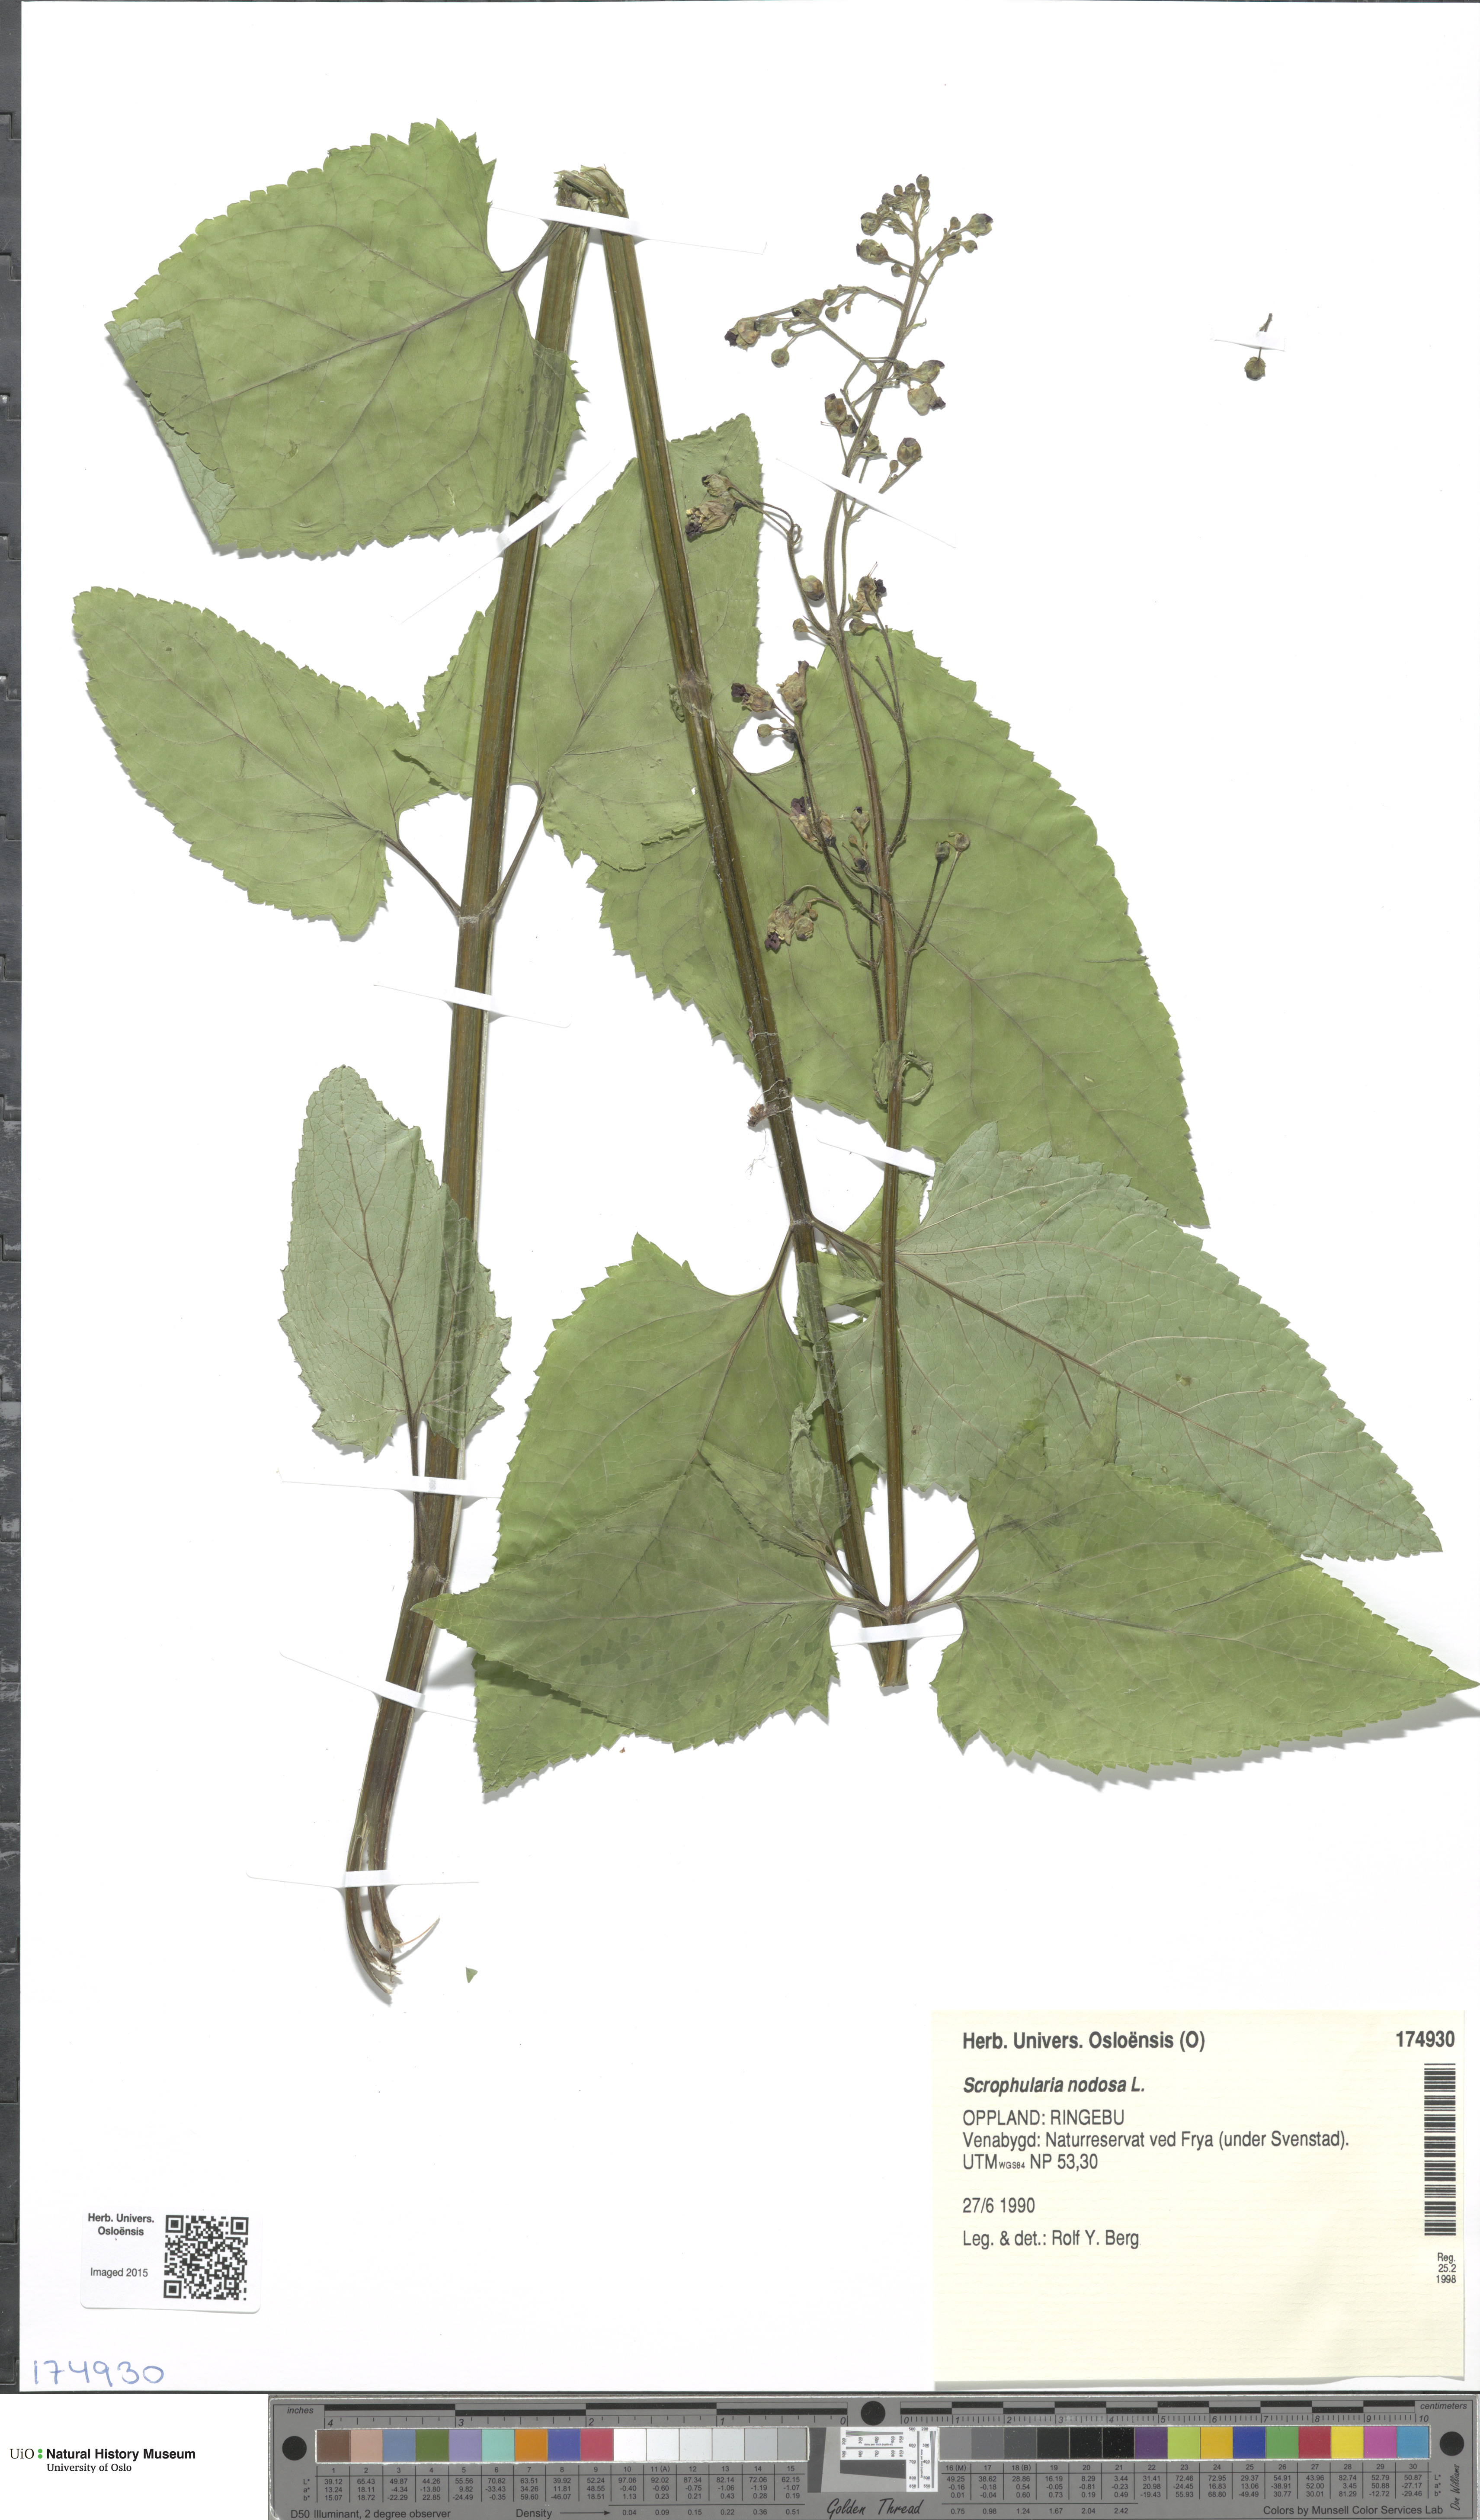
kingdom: Plantae
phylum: Tracheophyta
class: Magnoliopsida
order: Lamiales
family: Scrophulariaceae
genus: Scrophularia
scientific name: Scrophularia nodosa
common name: Common figwort
